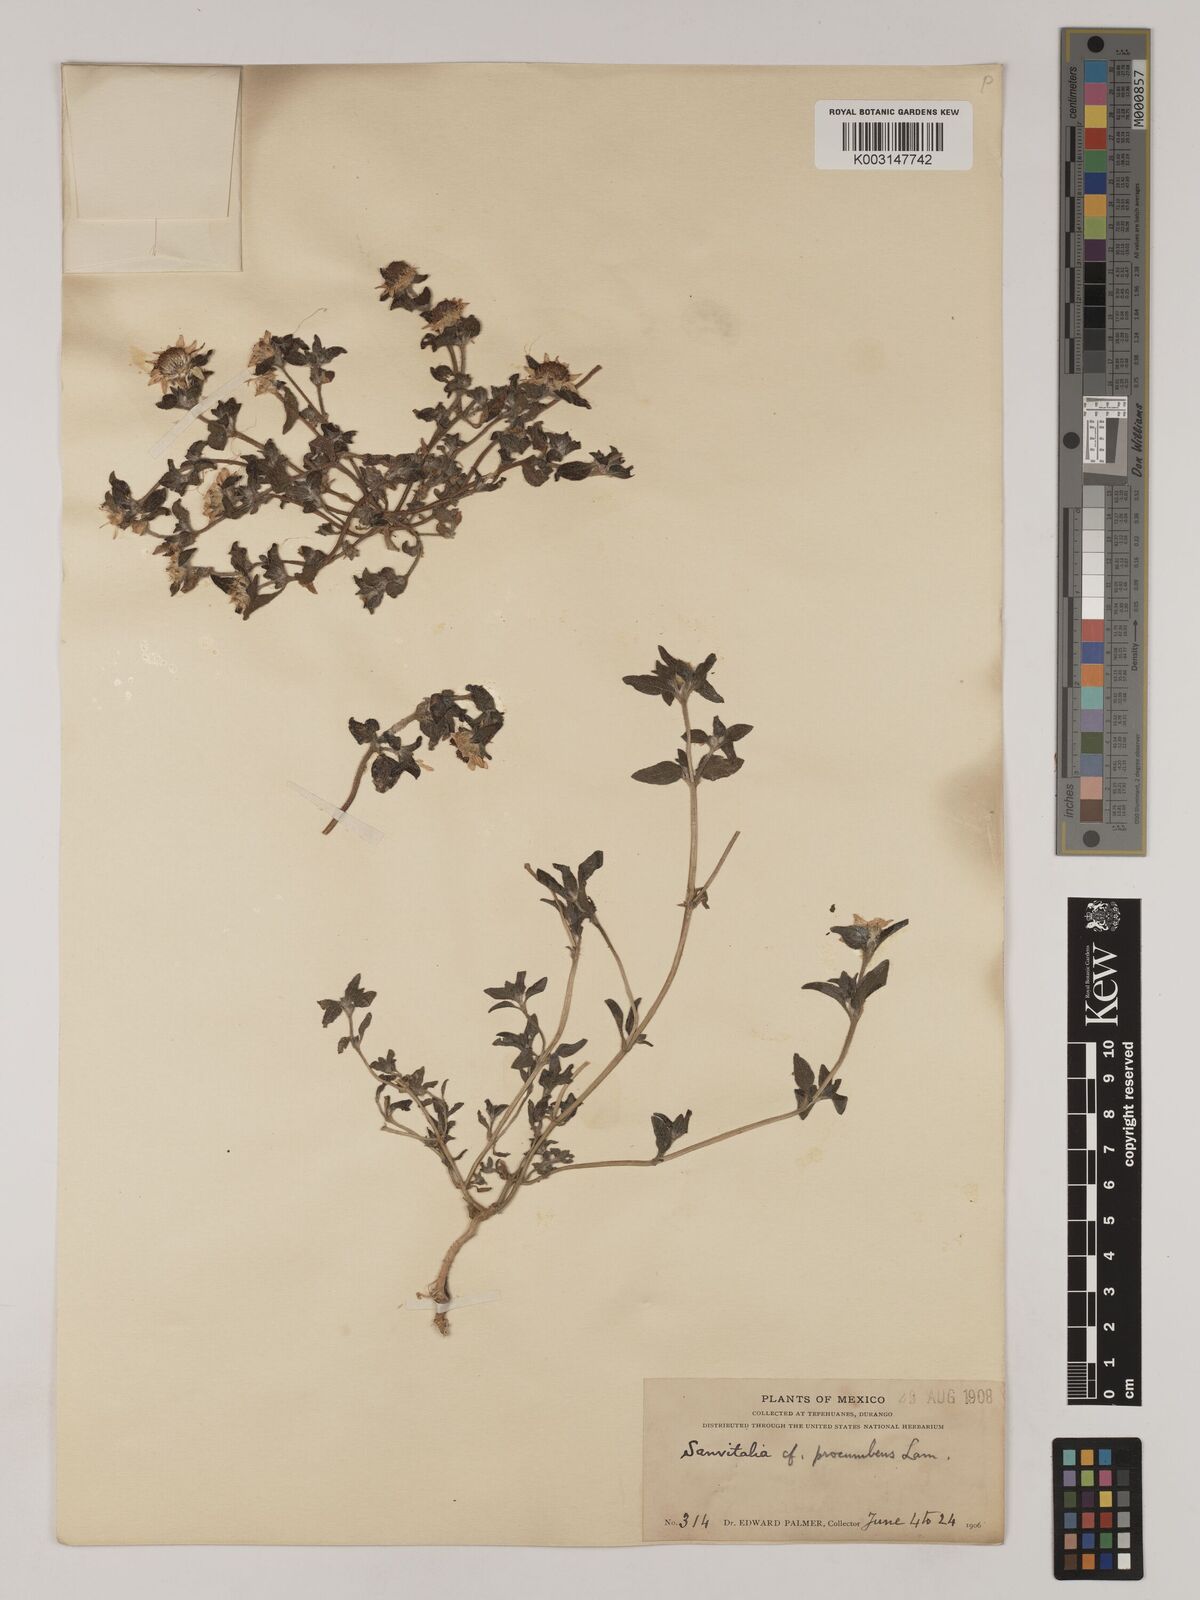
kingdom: Plantae
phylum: Tracheophyta
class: Magnoliopsida
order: Asterales
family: Asteraceae
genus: Sanvitalia
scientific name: Sanvitalia procumbens
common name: Mexican creeping zinnia
